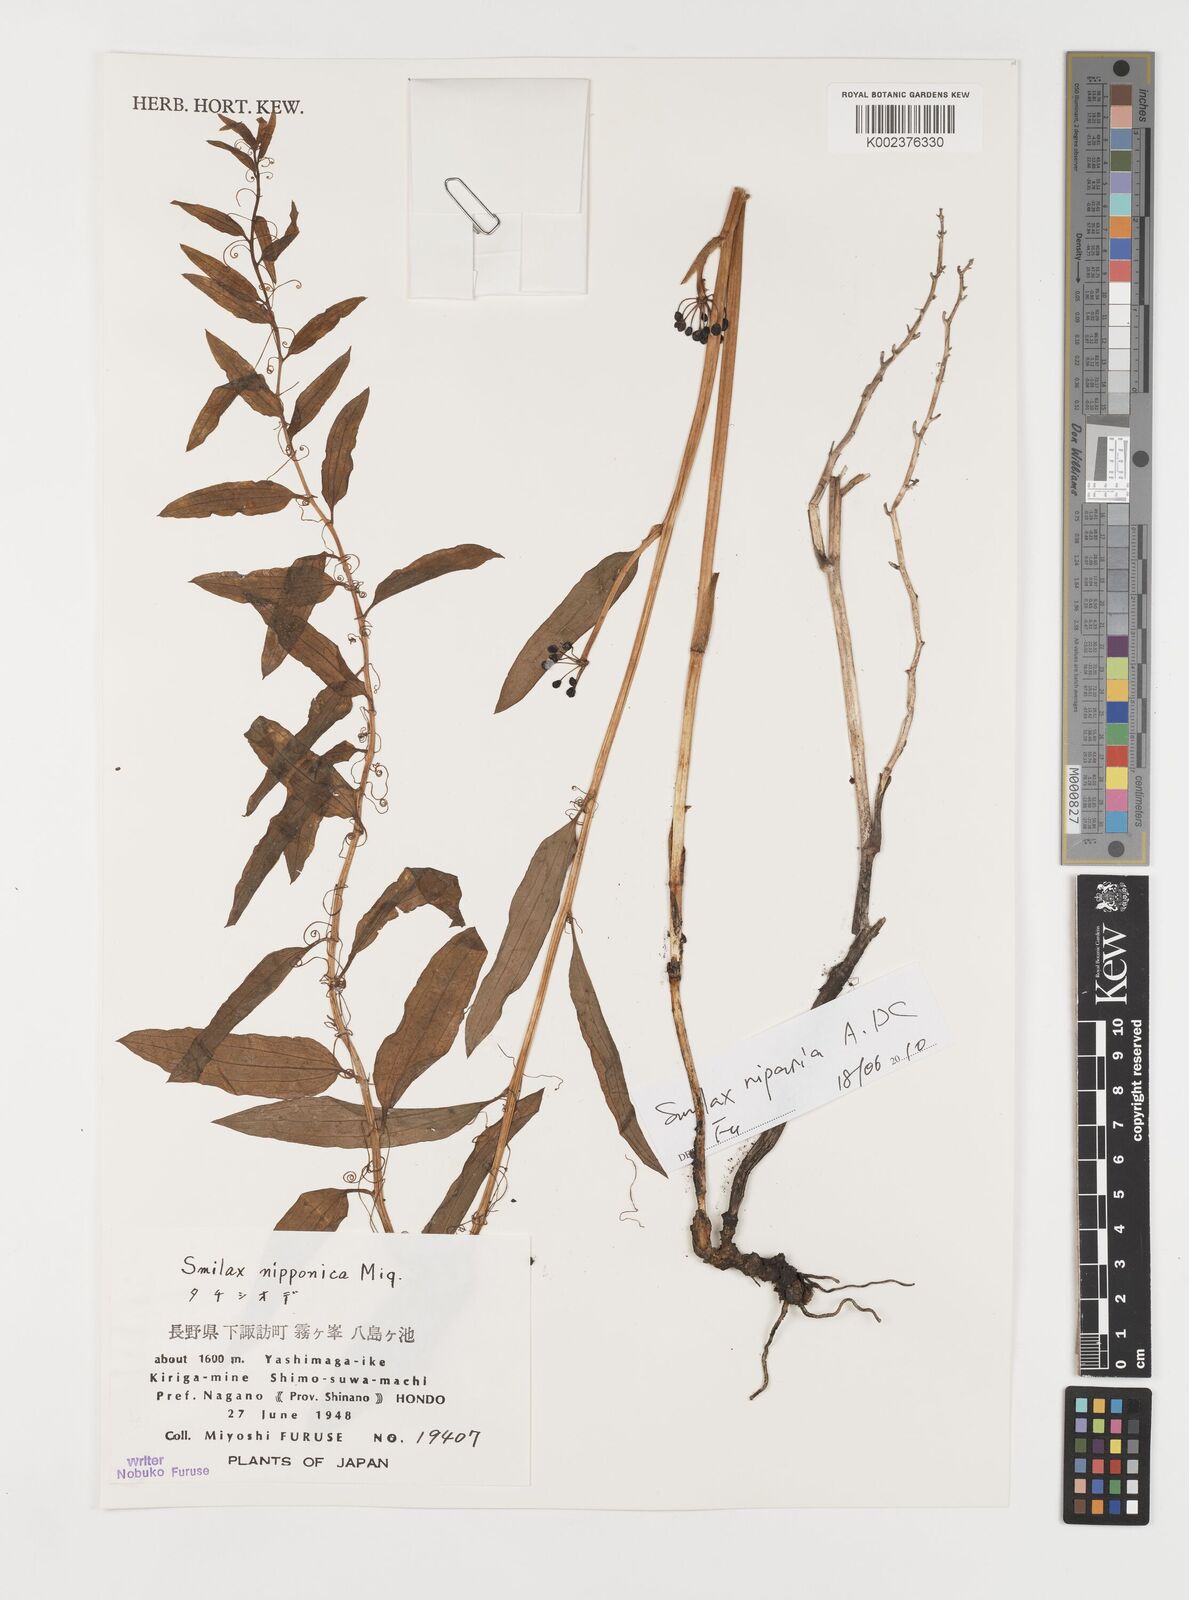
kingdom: Plantae
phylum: Tracheophyta
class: Liliopsida
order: Liliales
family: Smilacaceae
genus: Smilax
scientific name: Smilax nipponica
